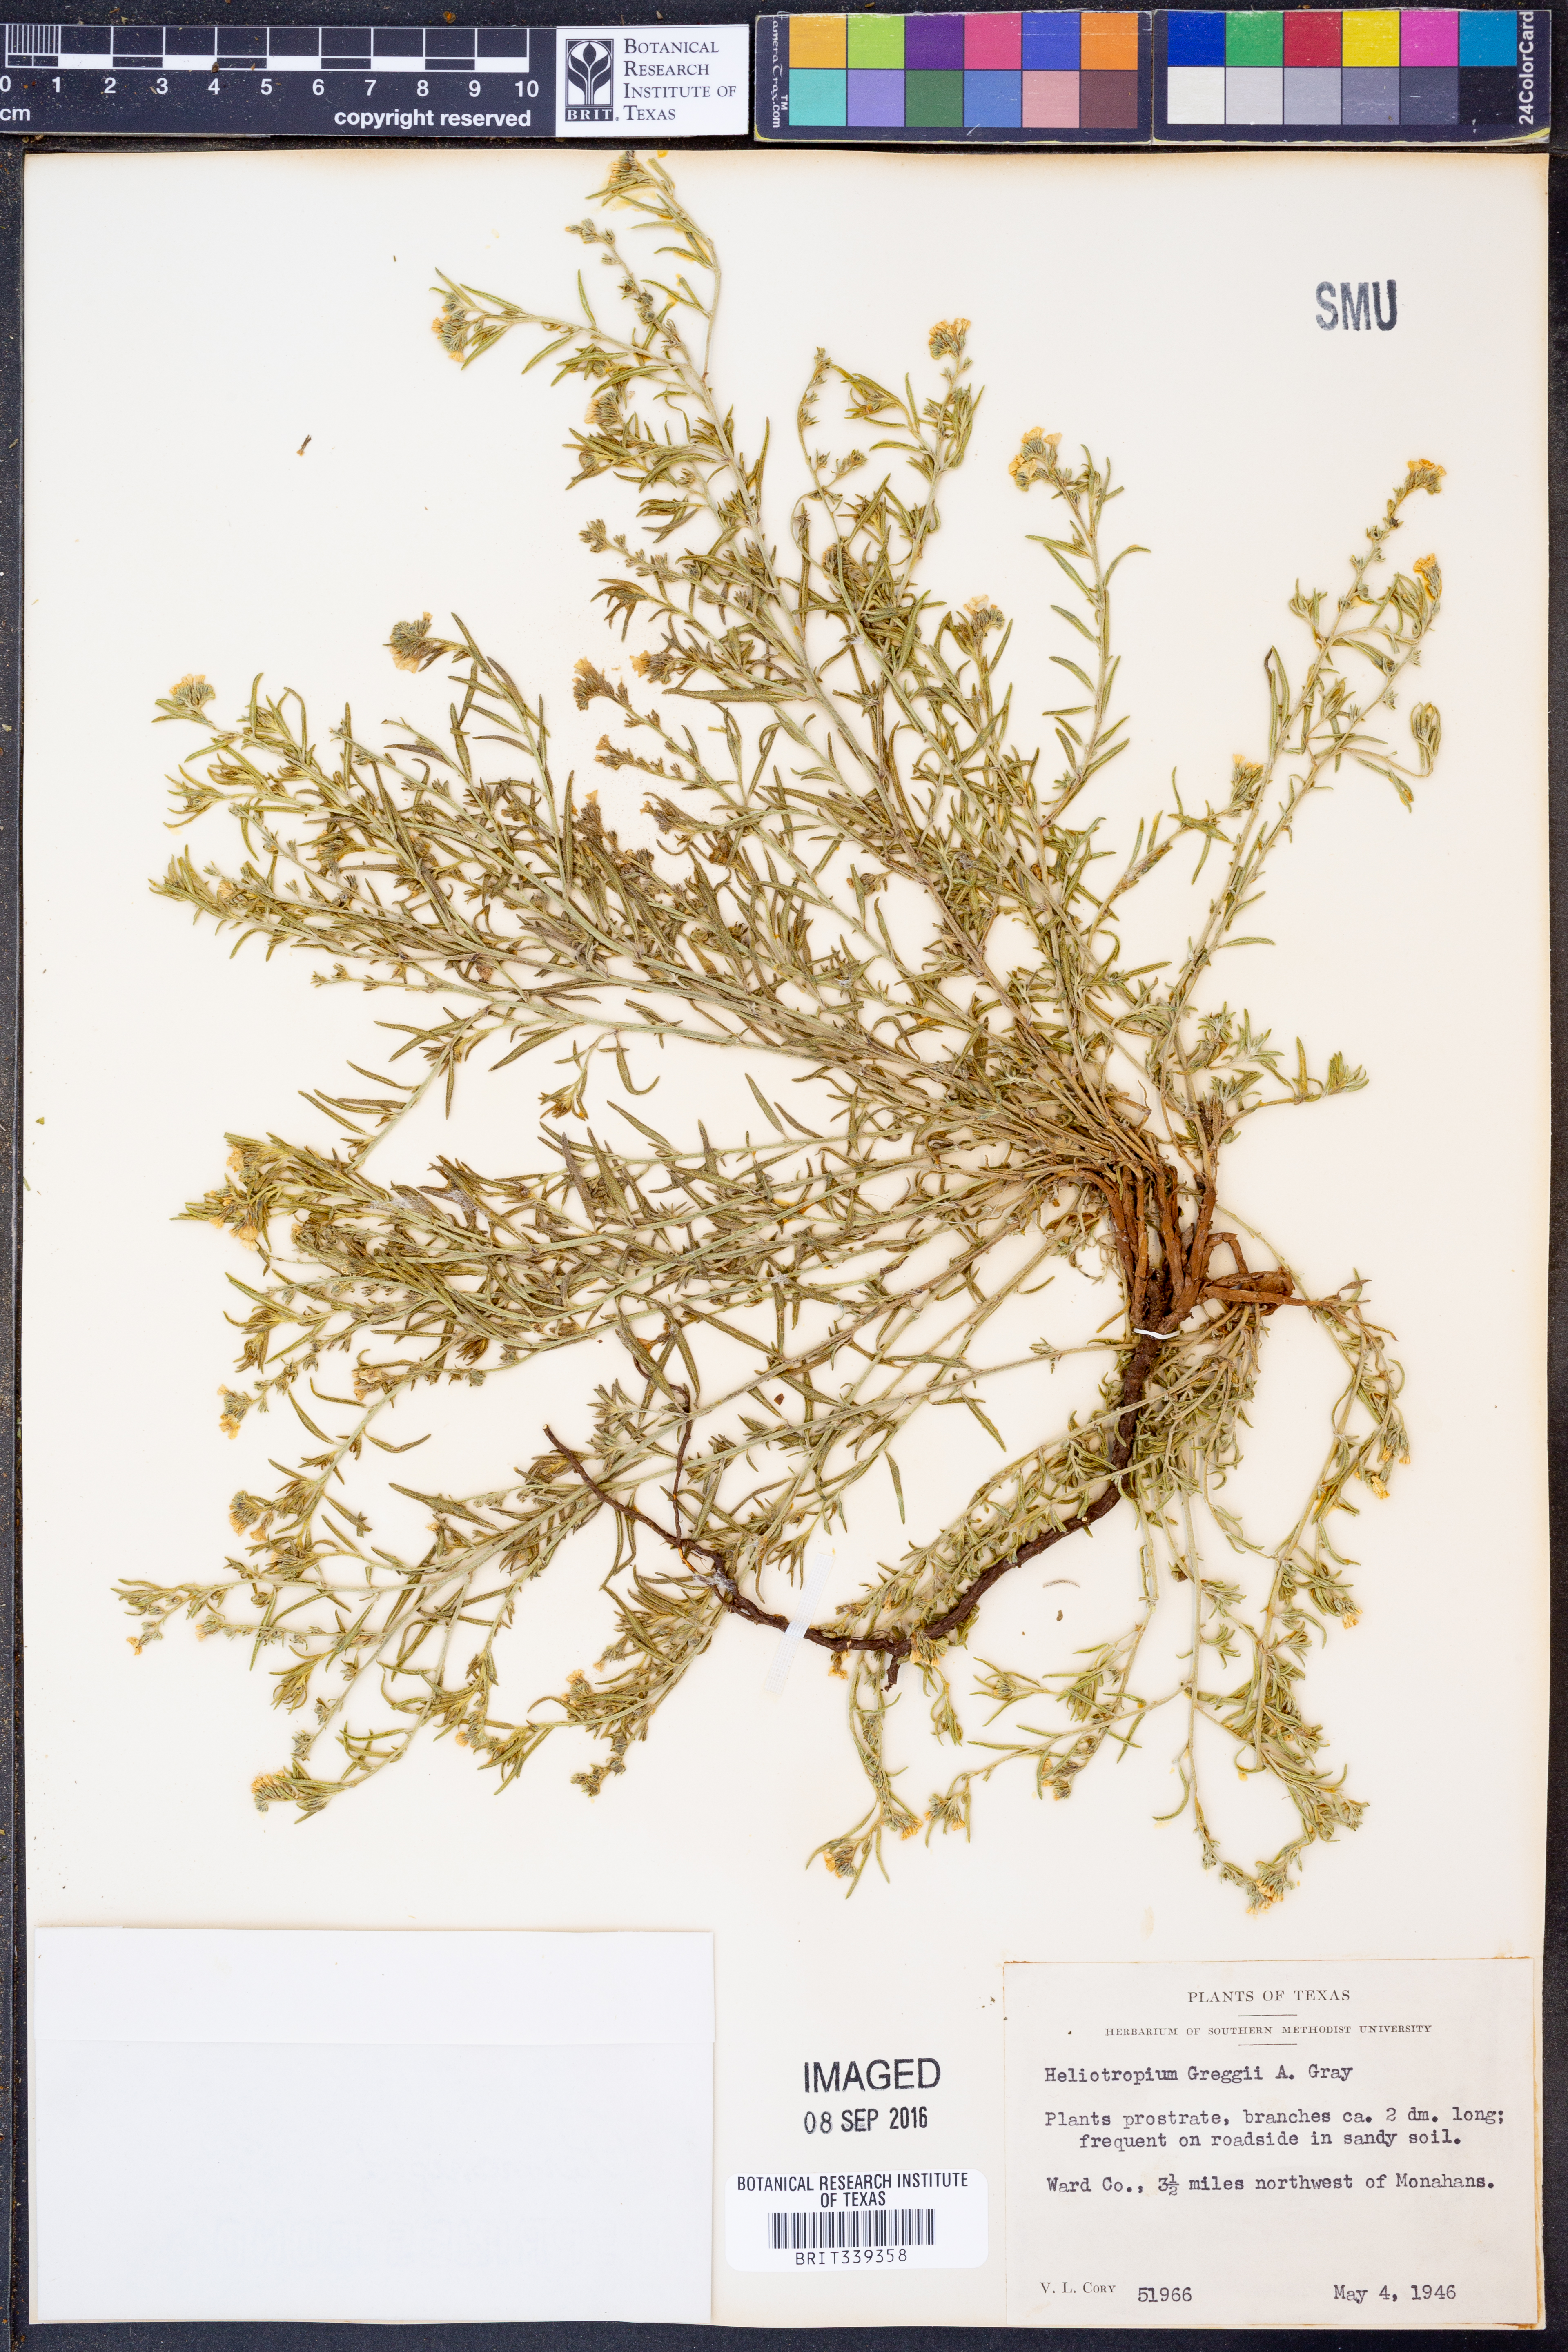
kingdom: Plantae
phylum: Tracheophyta
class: Magnoliopsida
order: Boraginales
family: Heliotropiaceae
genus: Euploca
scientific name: Euploca greggii
